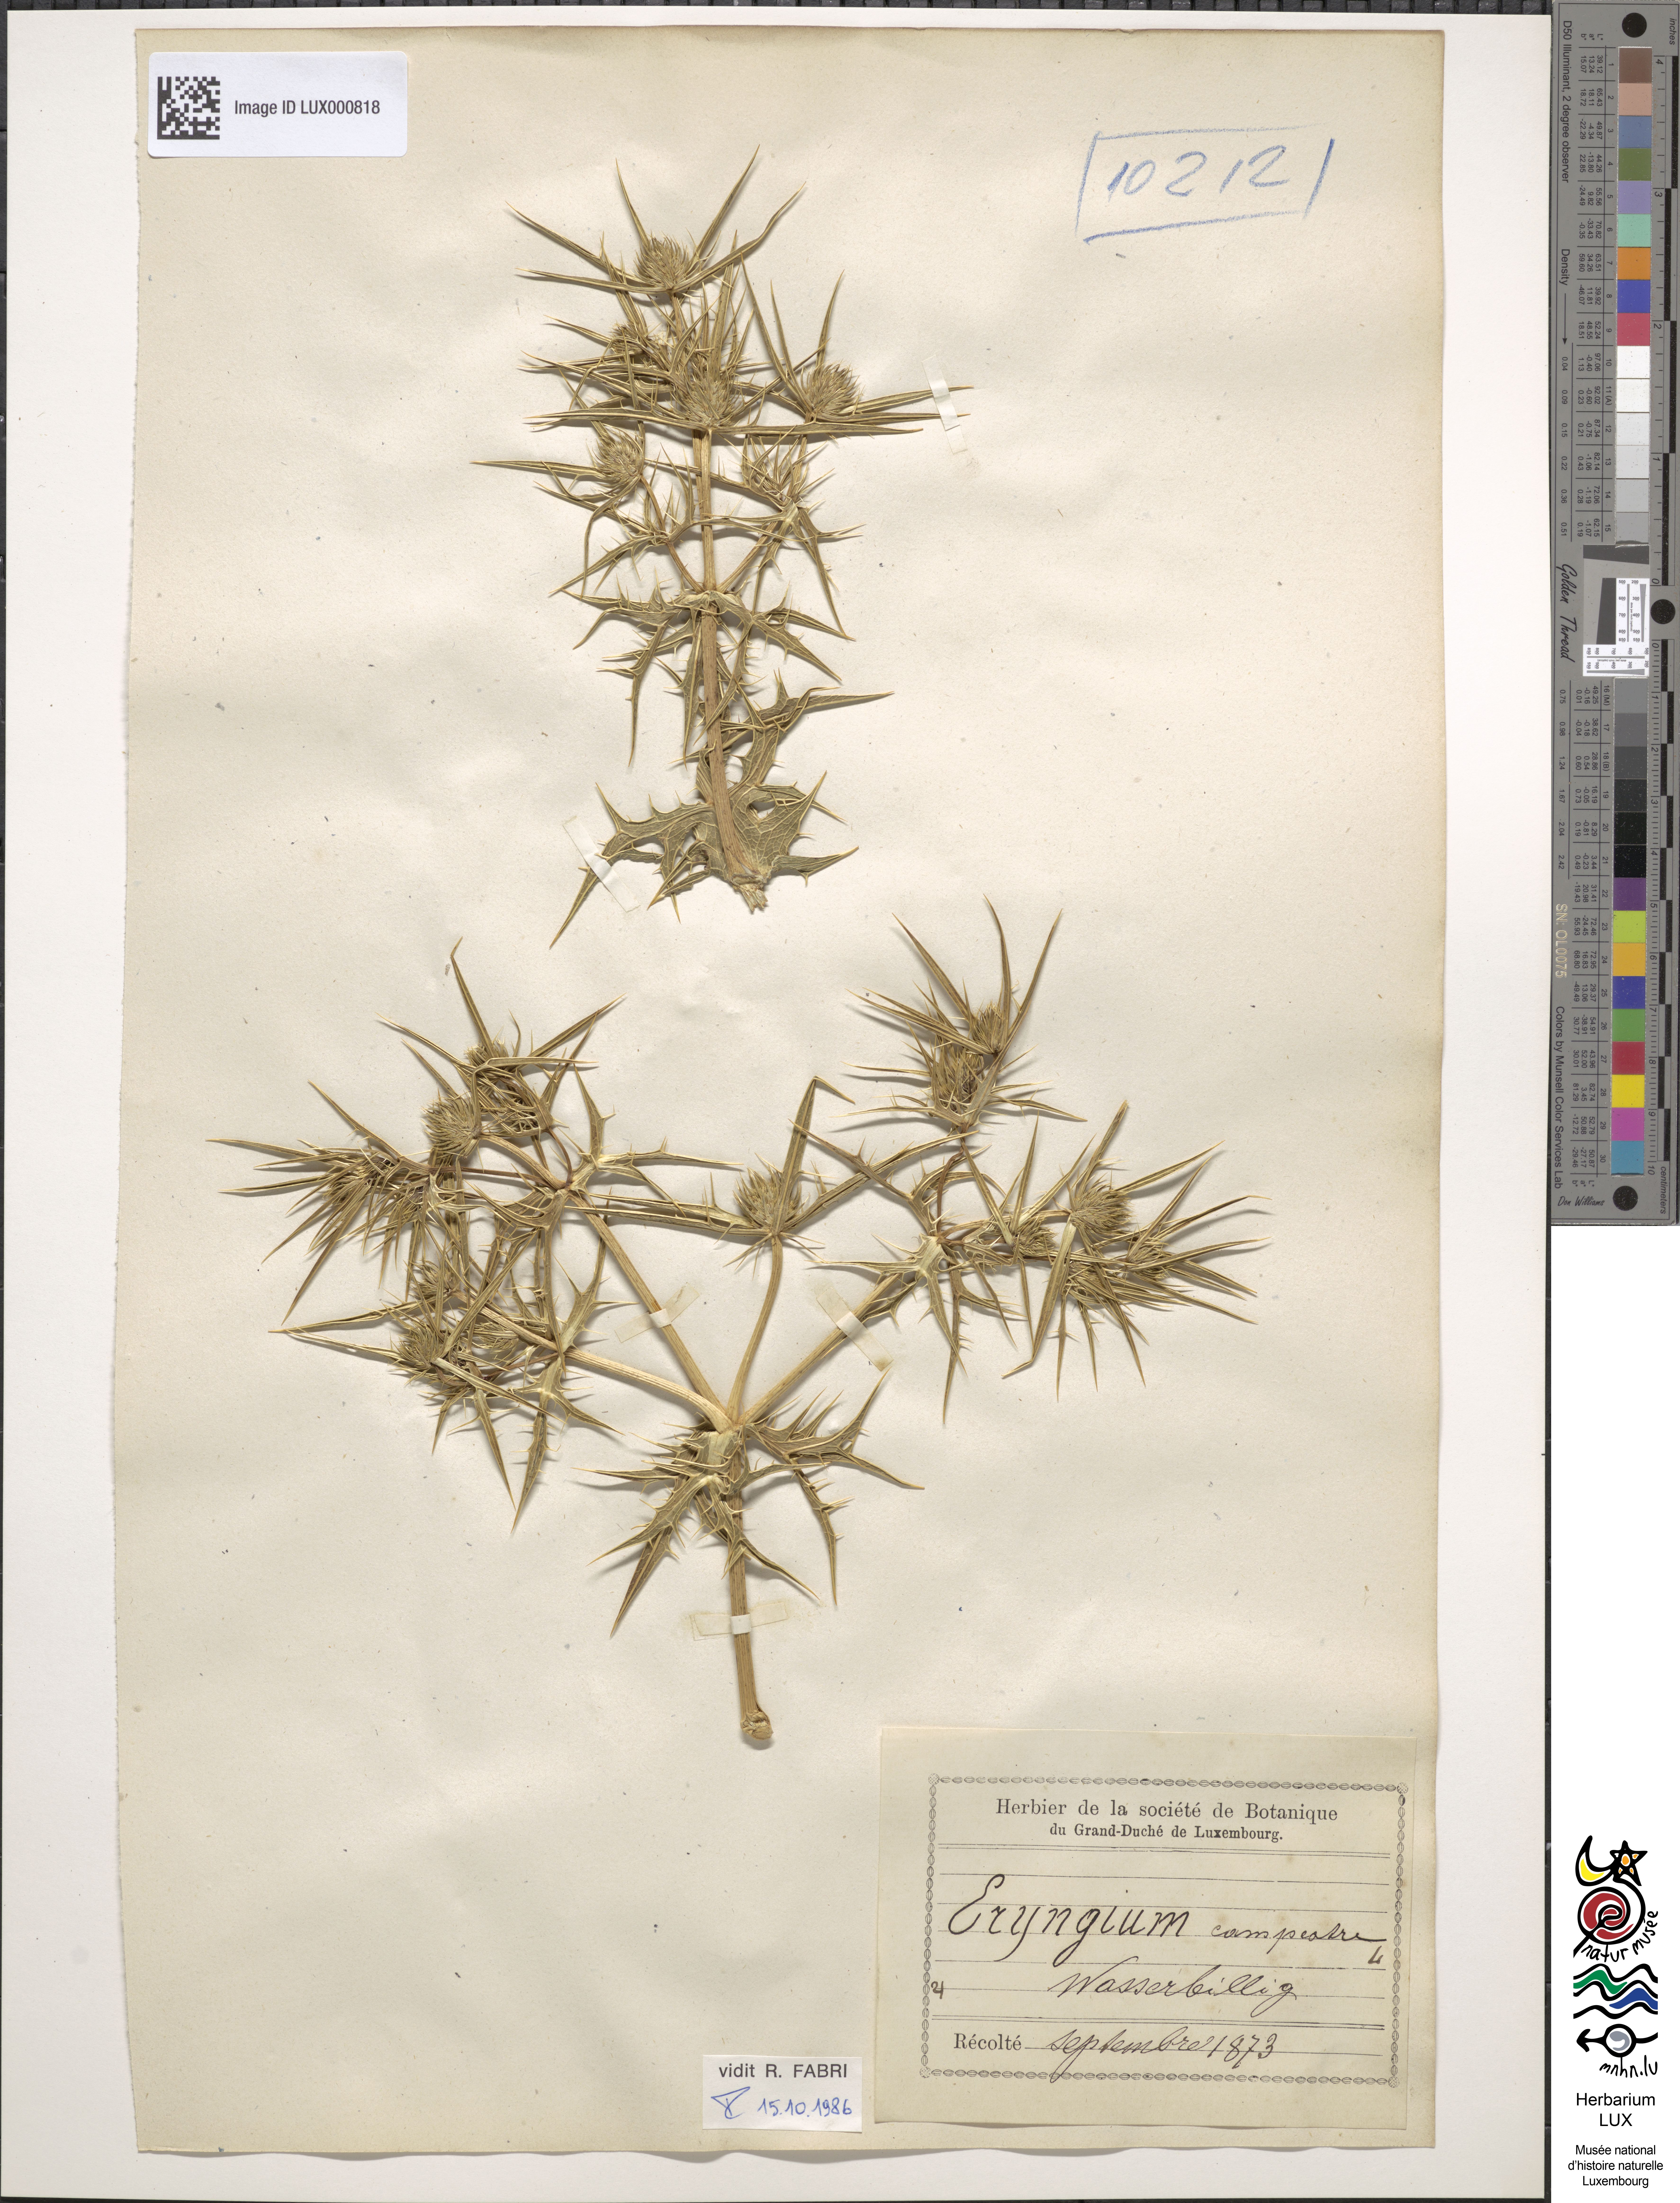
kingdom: Plantae
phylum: Tracheophyta
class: Magnoliopsida
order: Apiales
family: Apiaceae
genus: Eryngium
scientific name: Eryngium campestre
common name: Field eryngo
